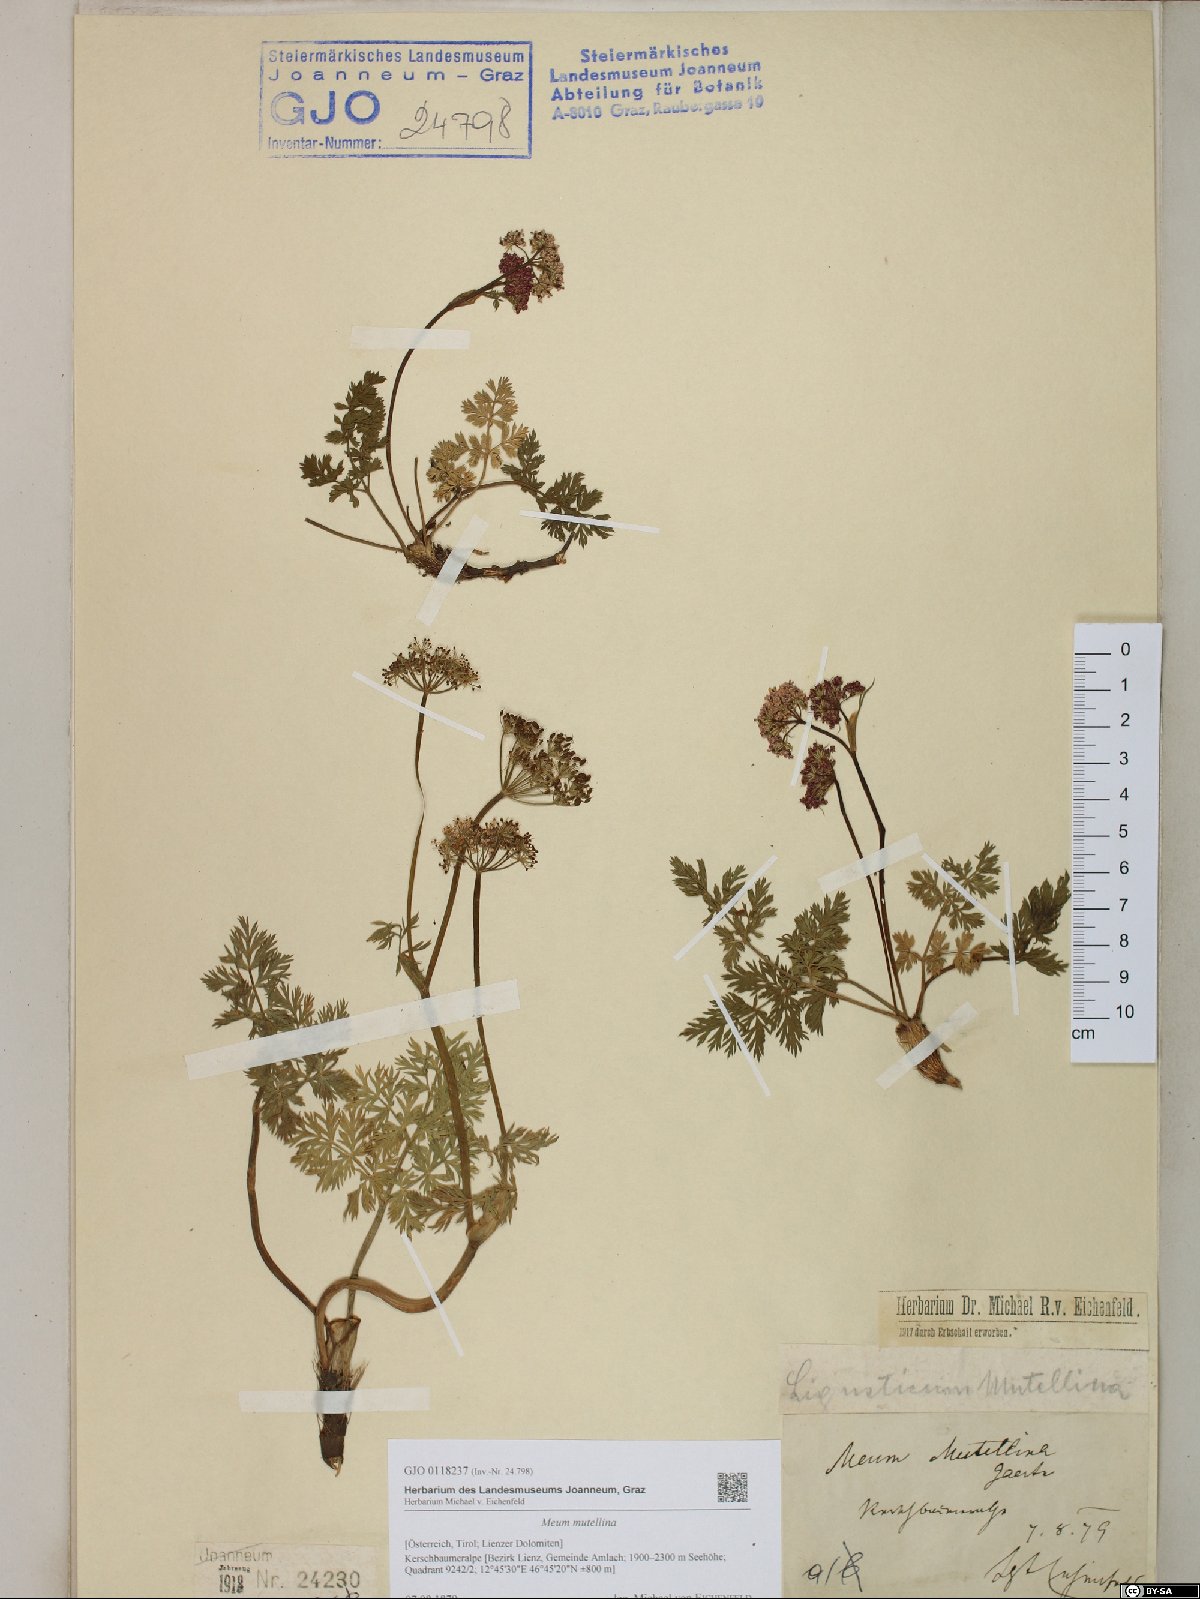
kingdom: Plantae
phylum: Tracheophyta
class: Magnoliopsida
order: Apiales
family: Apiaceae
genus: Mutellina
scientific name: Mutellina adonidifolia
